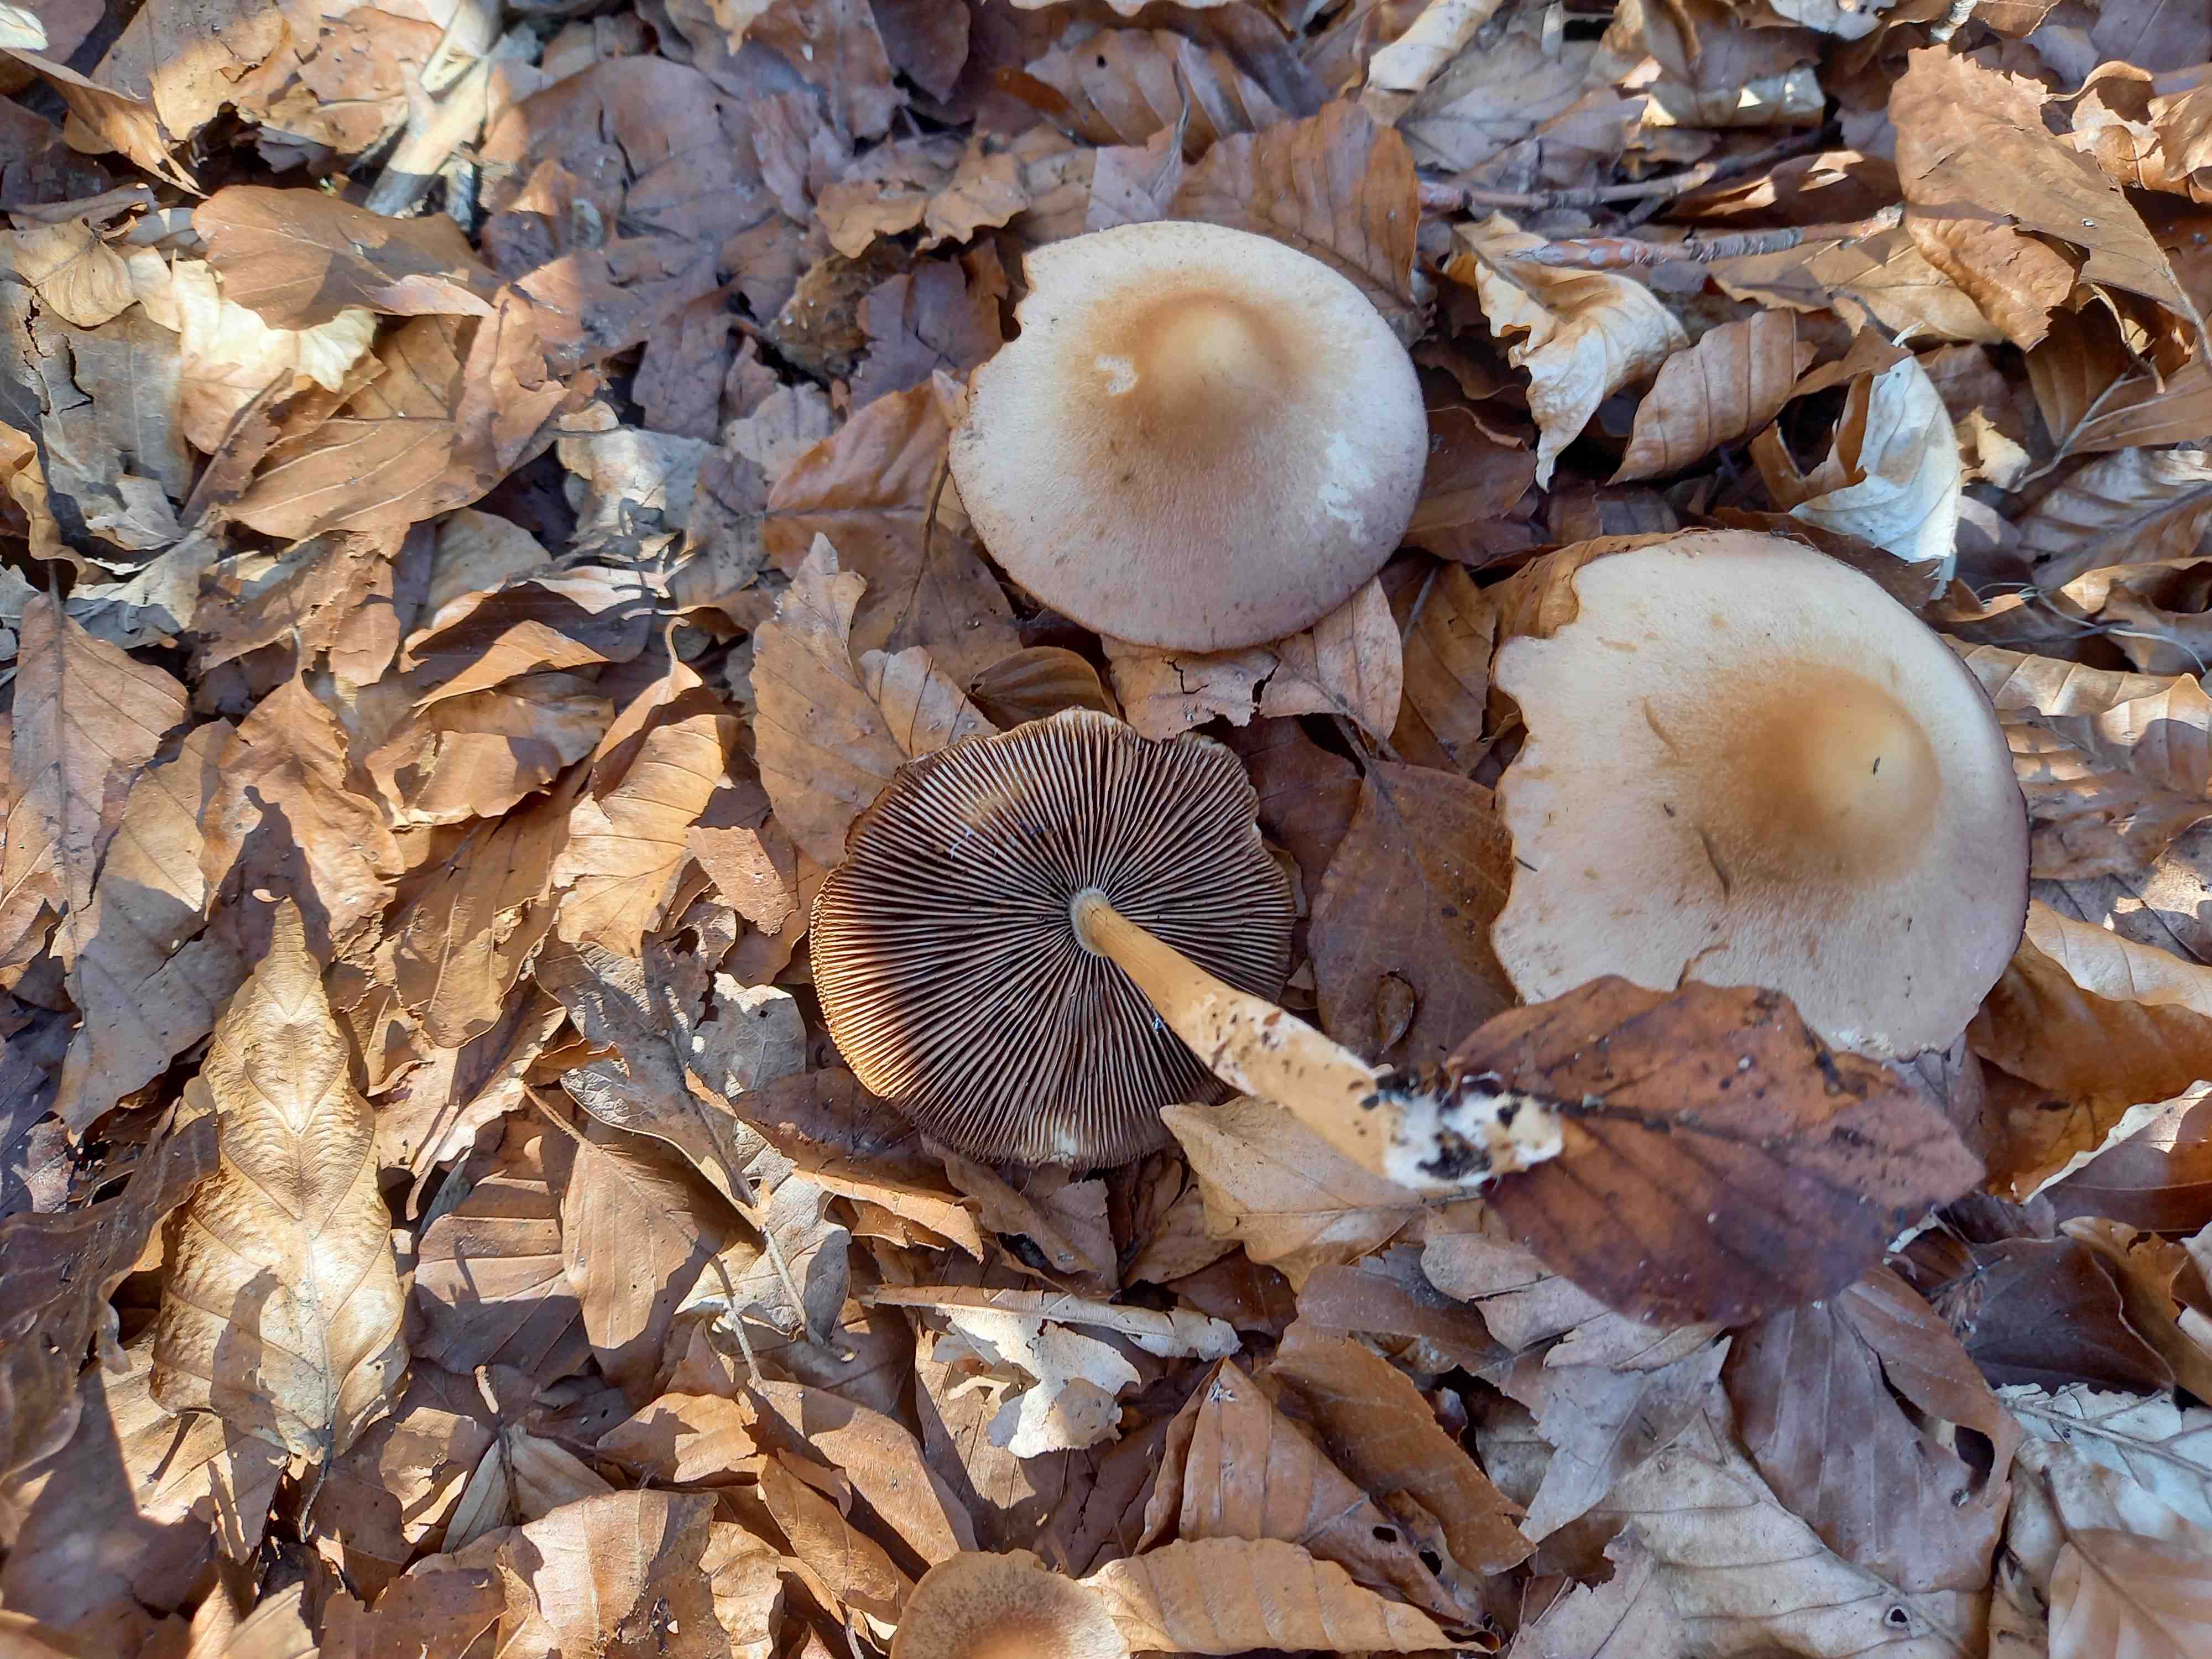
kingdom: Fungi
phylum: Basidiomycota
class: Agaricomycetes
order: Agaricales
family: Psathyrellaceae
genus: Psathyrella
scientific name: Psathyrella
